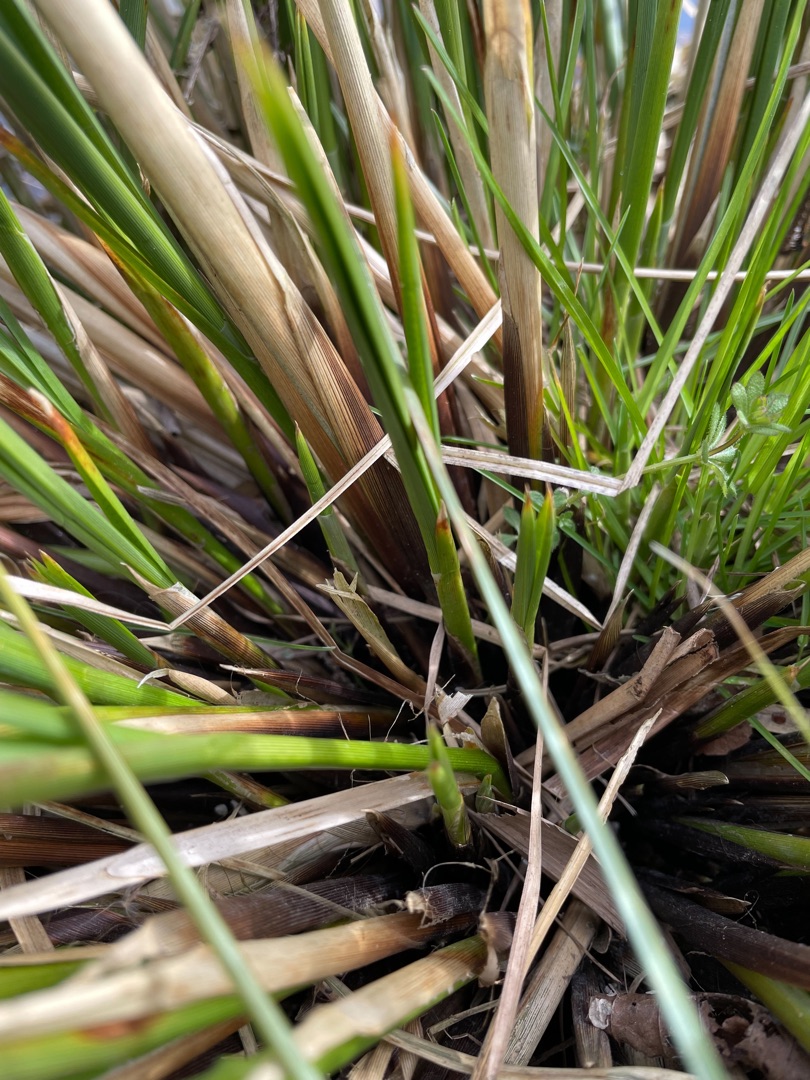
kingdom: Plantae
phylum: Tracheophyta
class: Liliopsida
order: Poales
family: Cyperaceae
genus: Carex
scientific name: Carex paniculata
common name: Top-star
